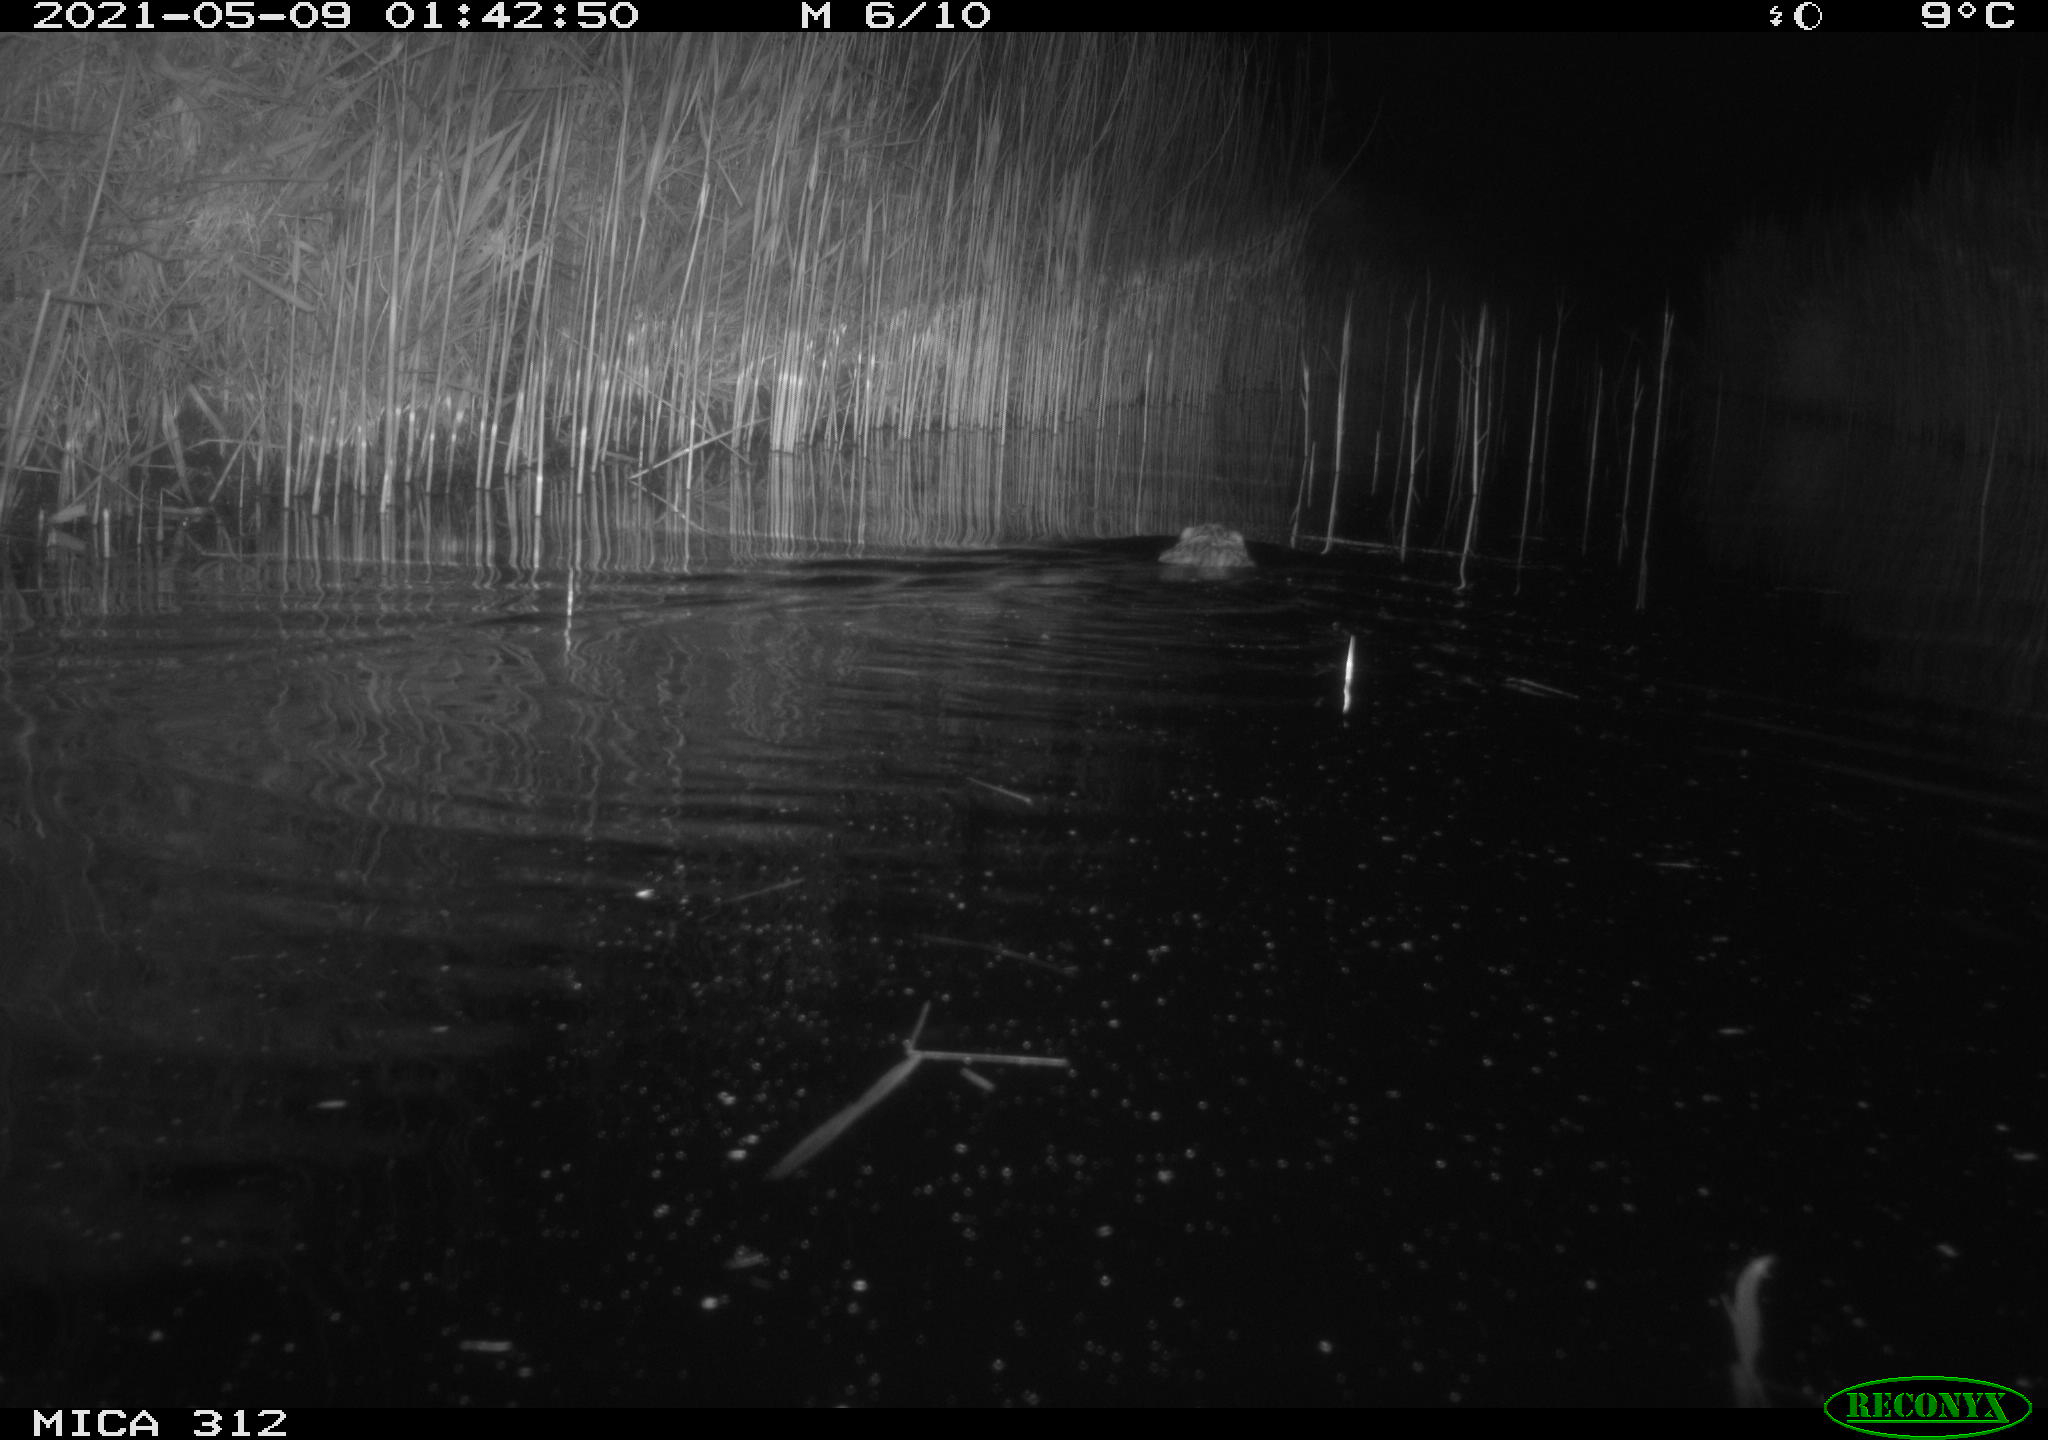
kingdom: Animalia
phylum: Chordata
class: Mammalia
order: Rodentia
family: Cricetidae
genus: Ondatra
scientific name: Ondatra zibethicus
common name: Muskrat
